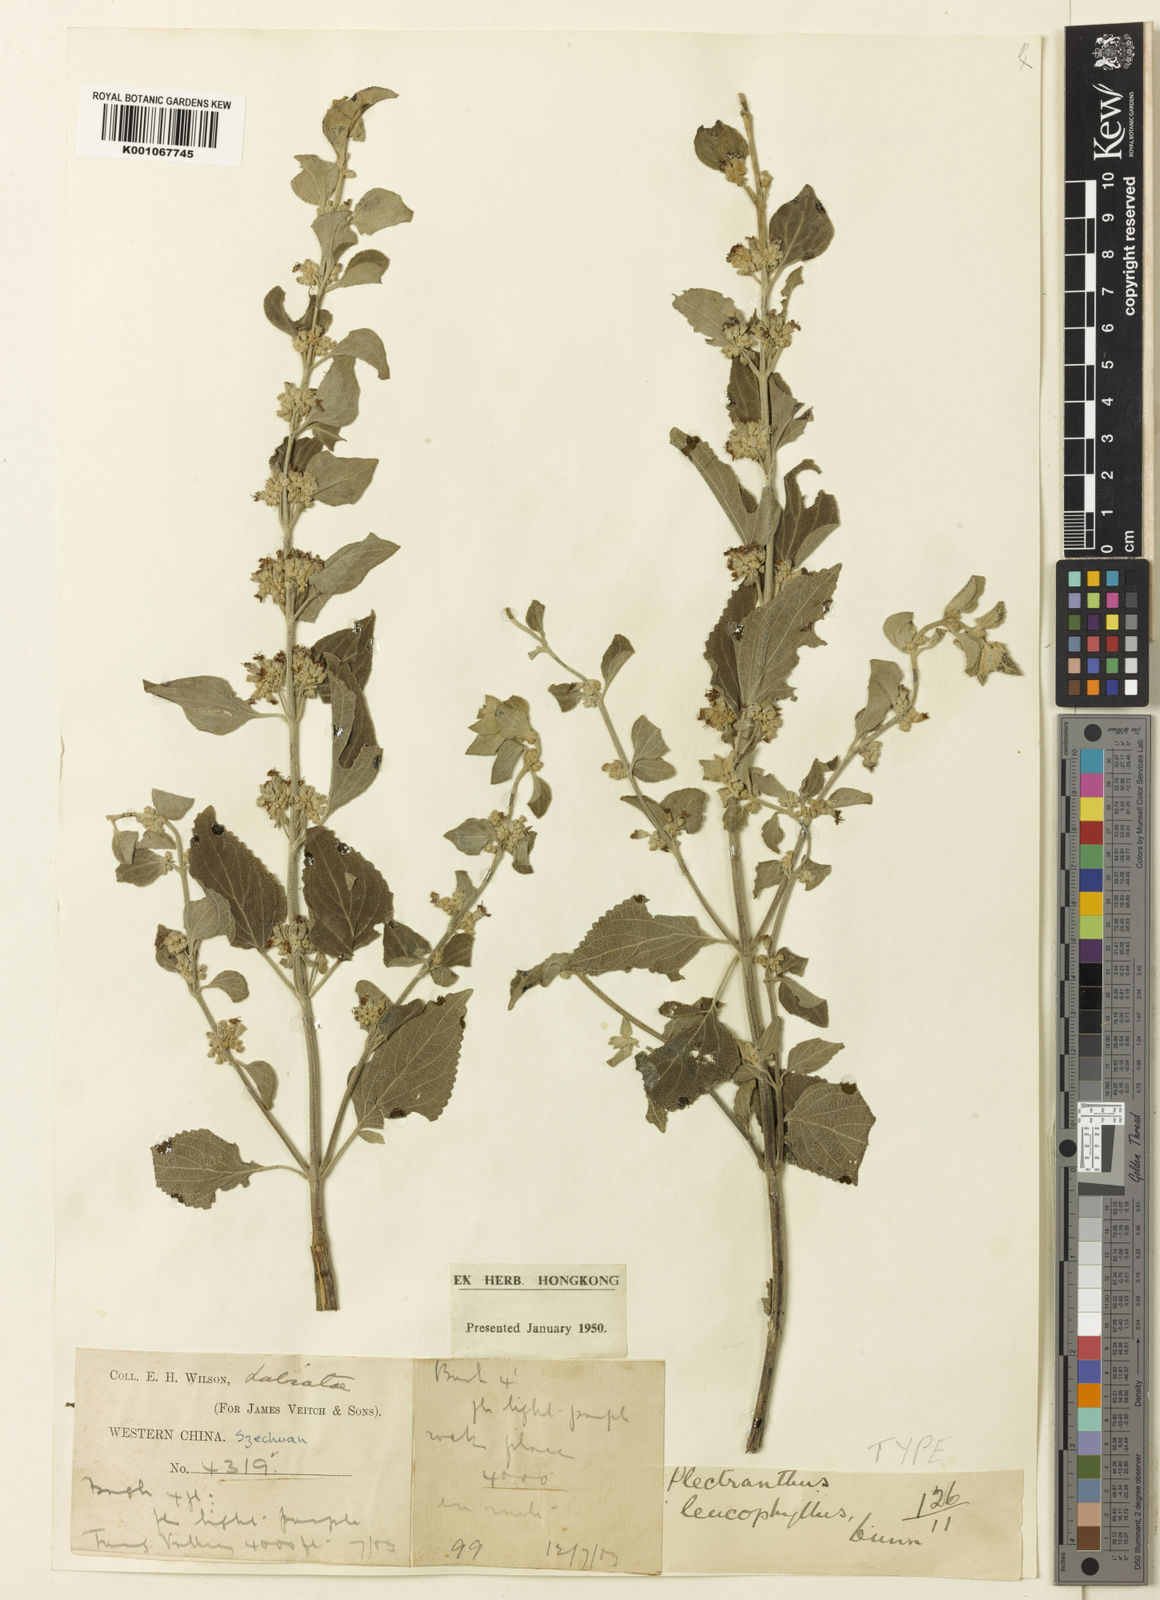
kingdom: Plantae
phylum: Tracheophyta
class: Magnoliopsida
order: Lamiales
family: Lamiaceae
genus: Isodon
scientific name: Isodon
